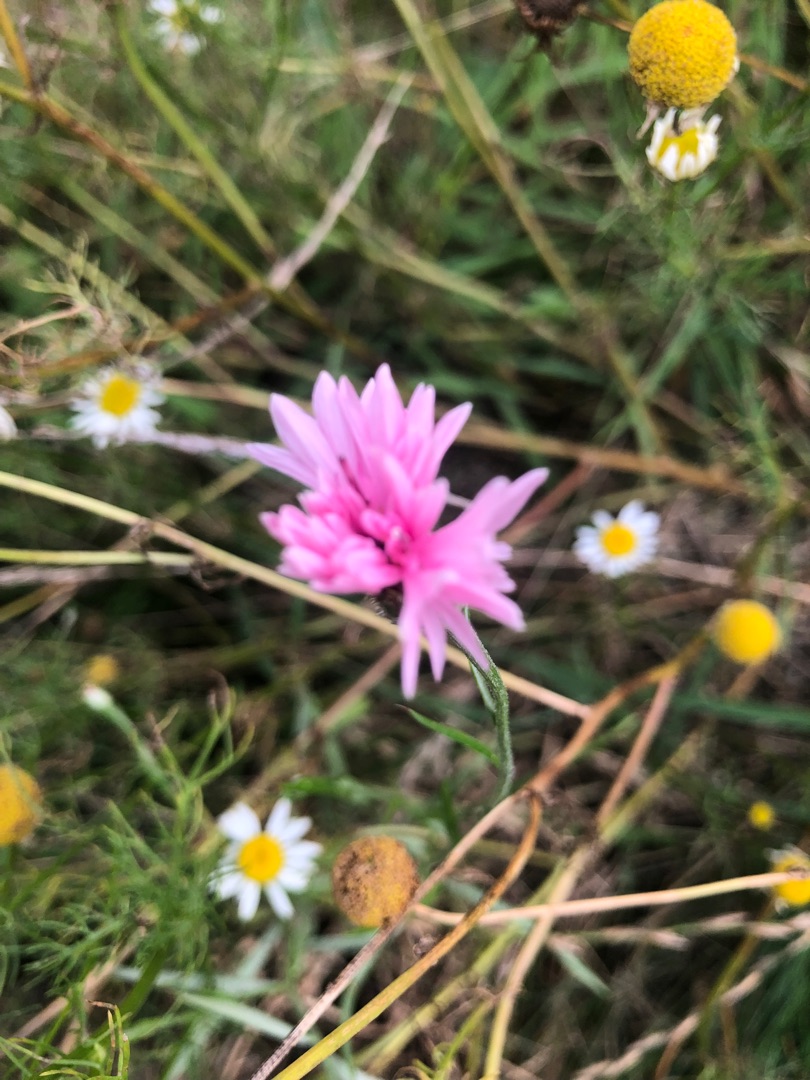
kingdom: Plantae
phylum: Tracheophyta
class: Magnoliopsida
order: Asterales
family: Asteraceae
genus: Centaurea
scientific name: Centaurea cyanus
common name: Kornblomst
